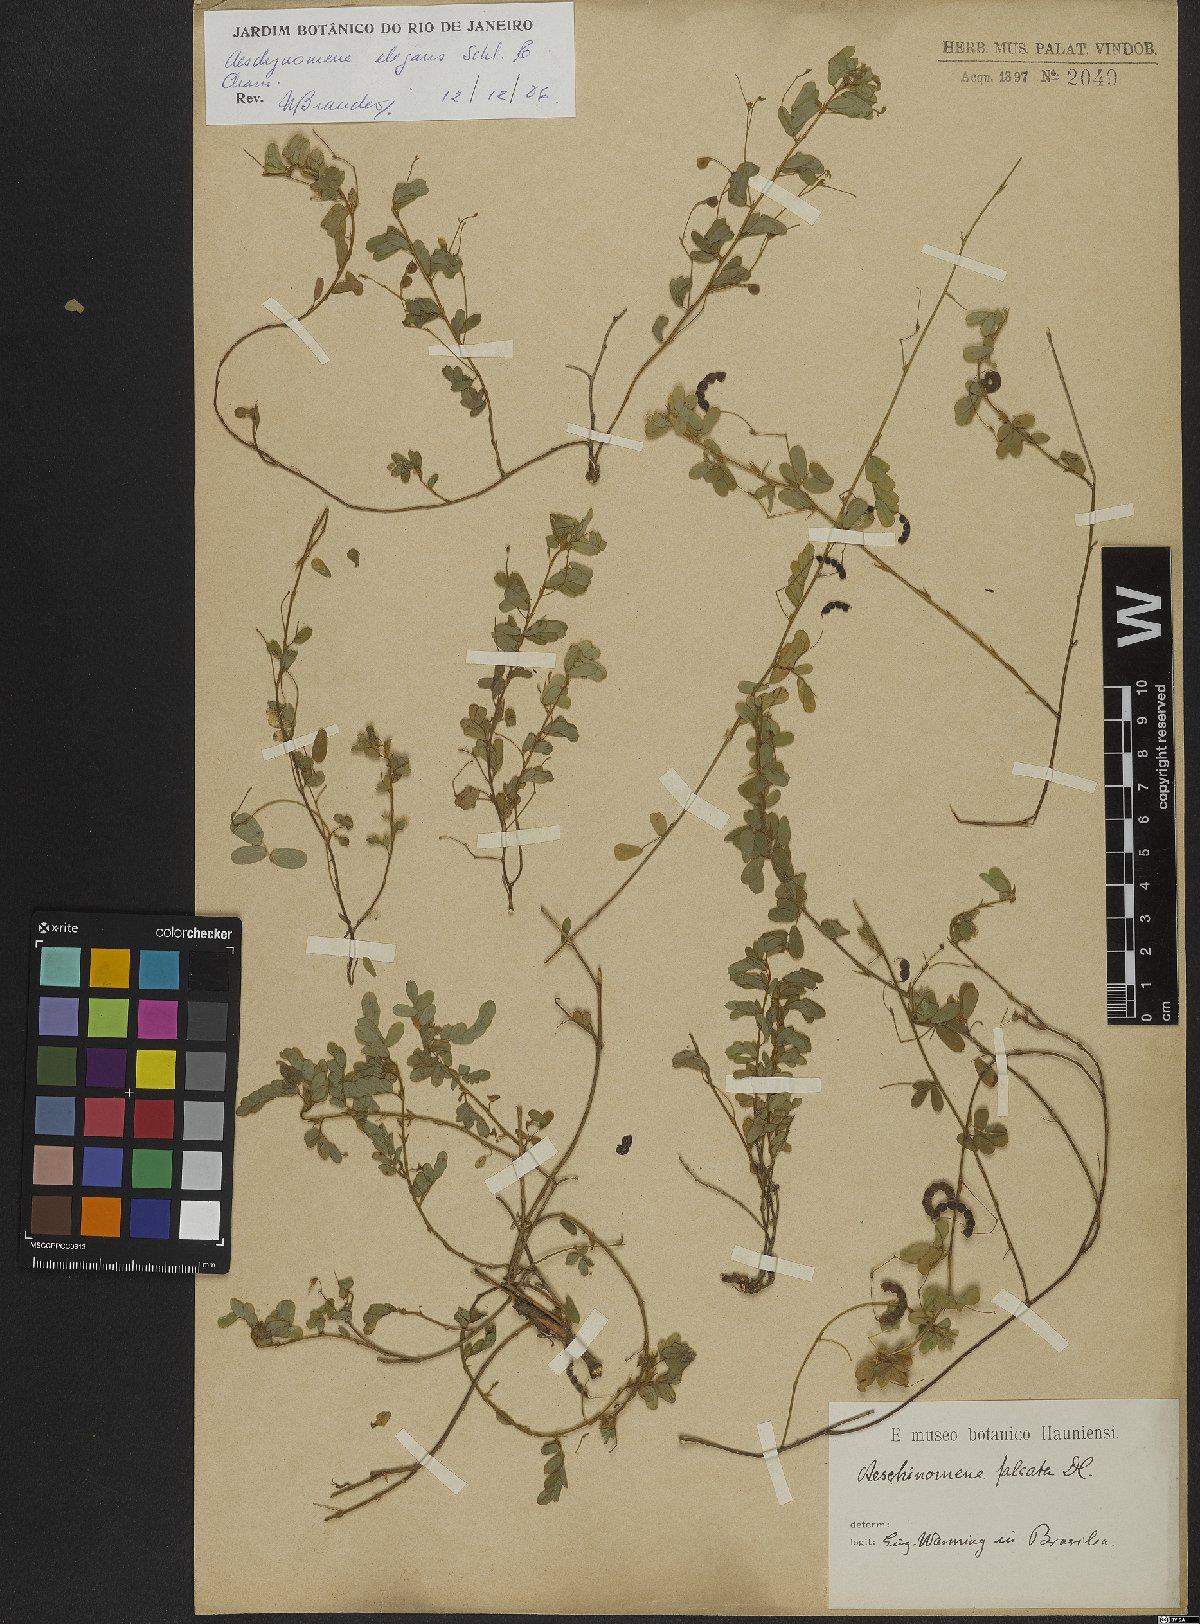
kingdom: Plantae
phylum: Tracheophyta
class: Magnoliopsida
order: Fabales
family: Fabaceae
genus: Ctenodon
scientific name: Ctenodon elegans
